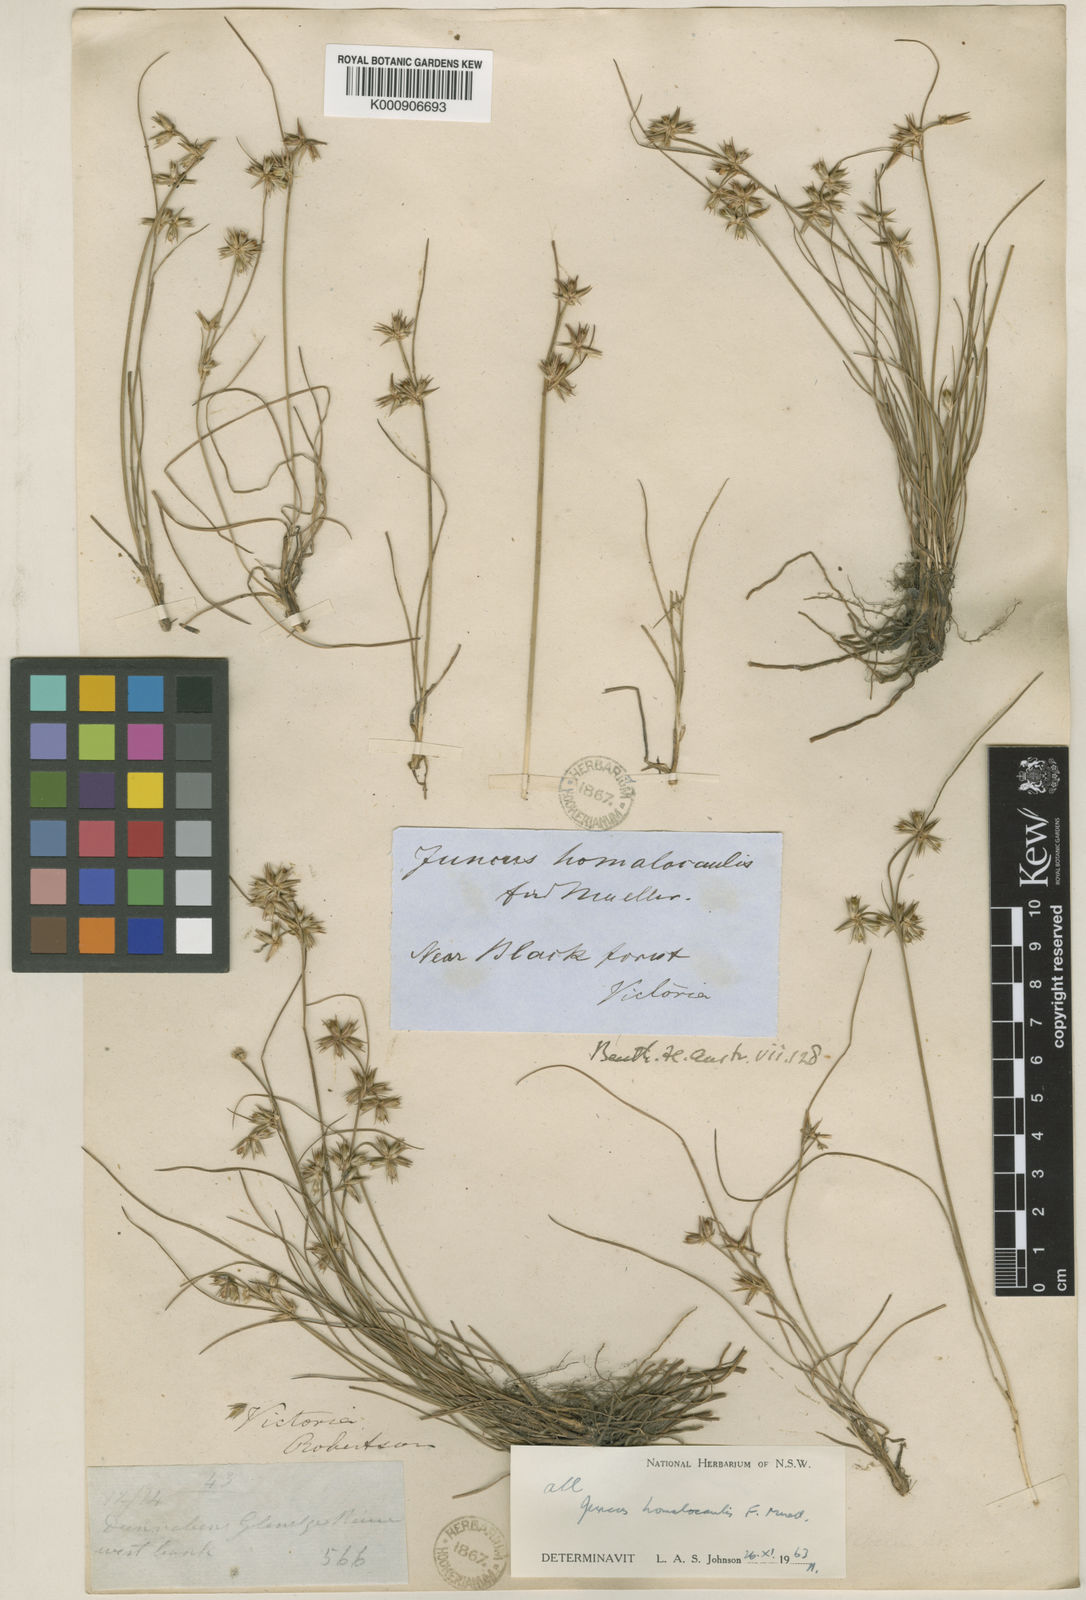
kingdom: Plantae
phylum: Tracheophyta
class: Liliopsida
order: Poales
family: Juncaceae
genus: Juncus
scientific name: Juncus
